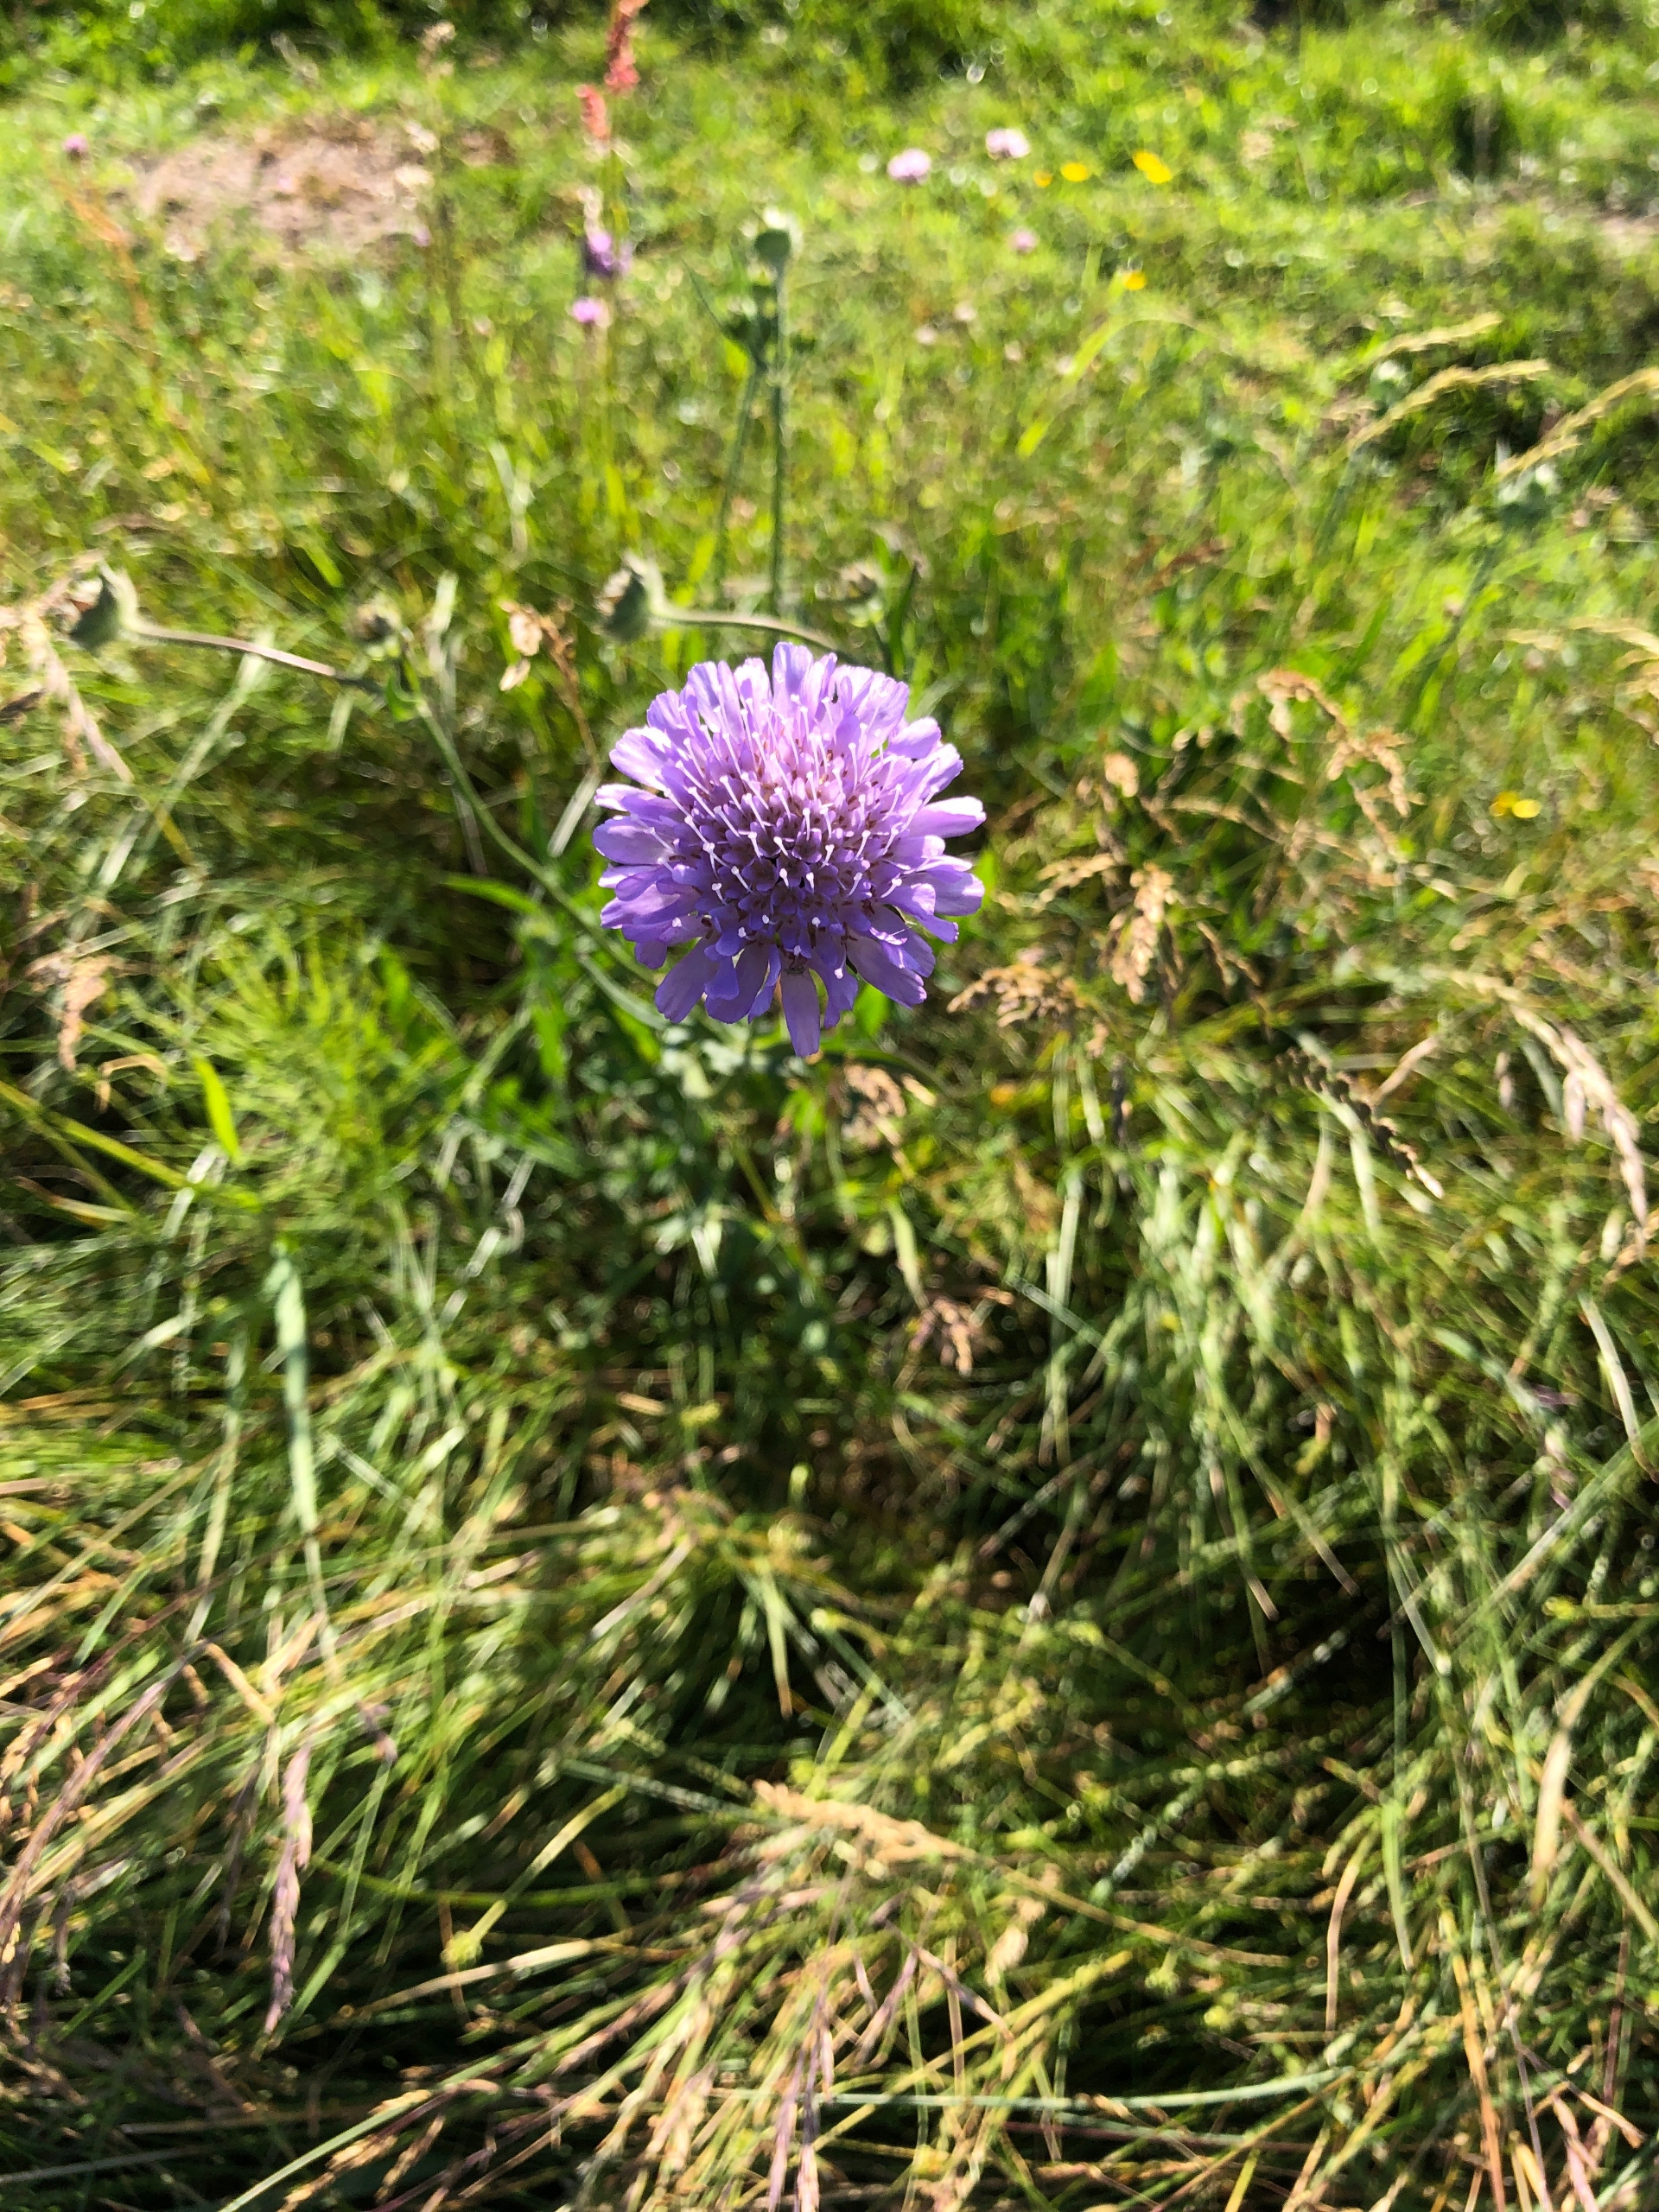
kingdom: Plantae
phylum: Tracheophyta
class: Magnoliopsida
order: Dipsacales
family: Caprifoliaceae
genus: Knautia
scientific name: Knautia arvensis
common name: Blåhat
